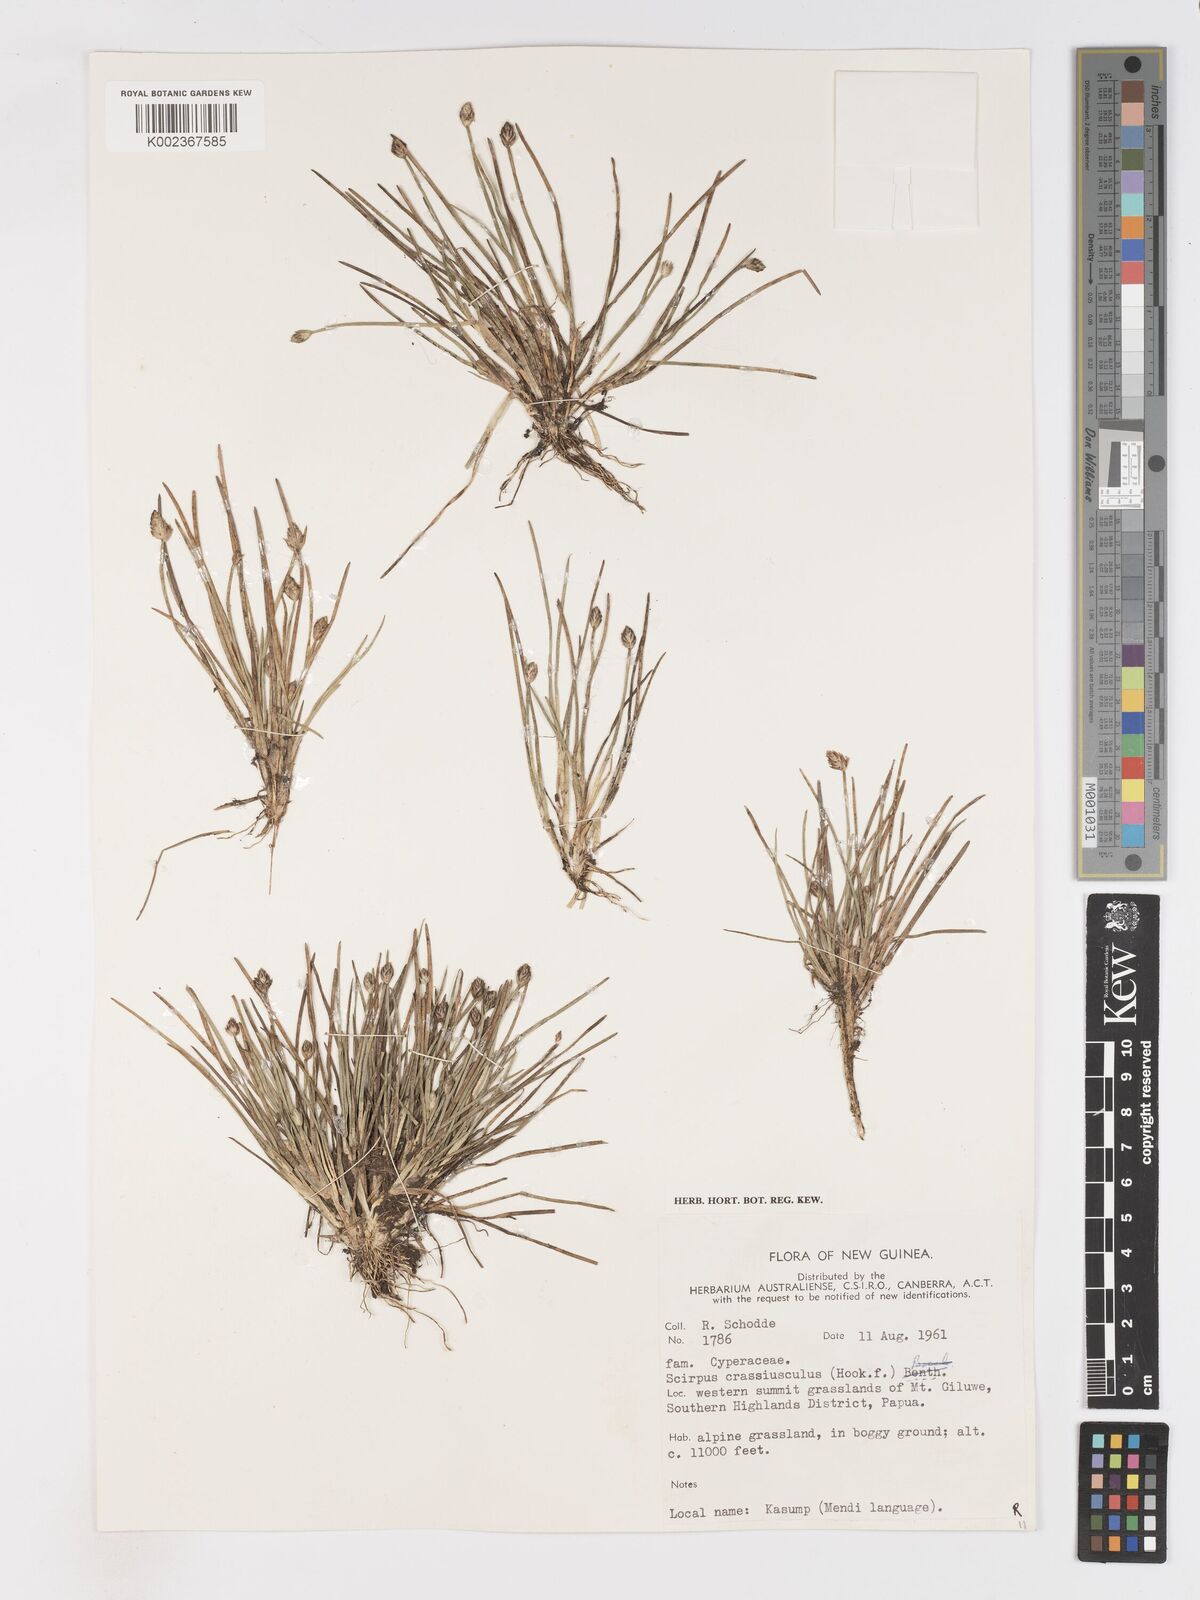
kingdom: Plantae
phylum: Tracheophyta
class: Liliopsida
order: Poales
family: Cyperaceae
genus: Isolepis
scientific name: Isolepis crassiuscula
